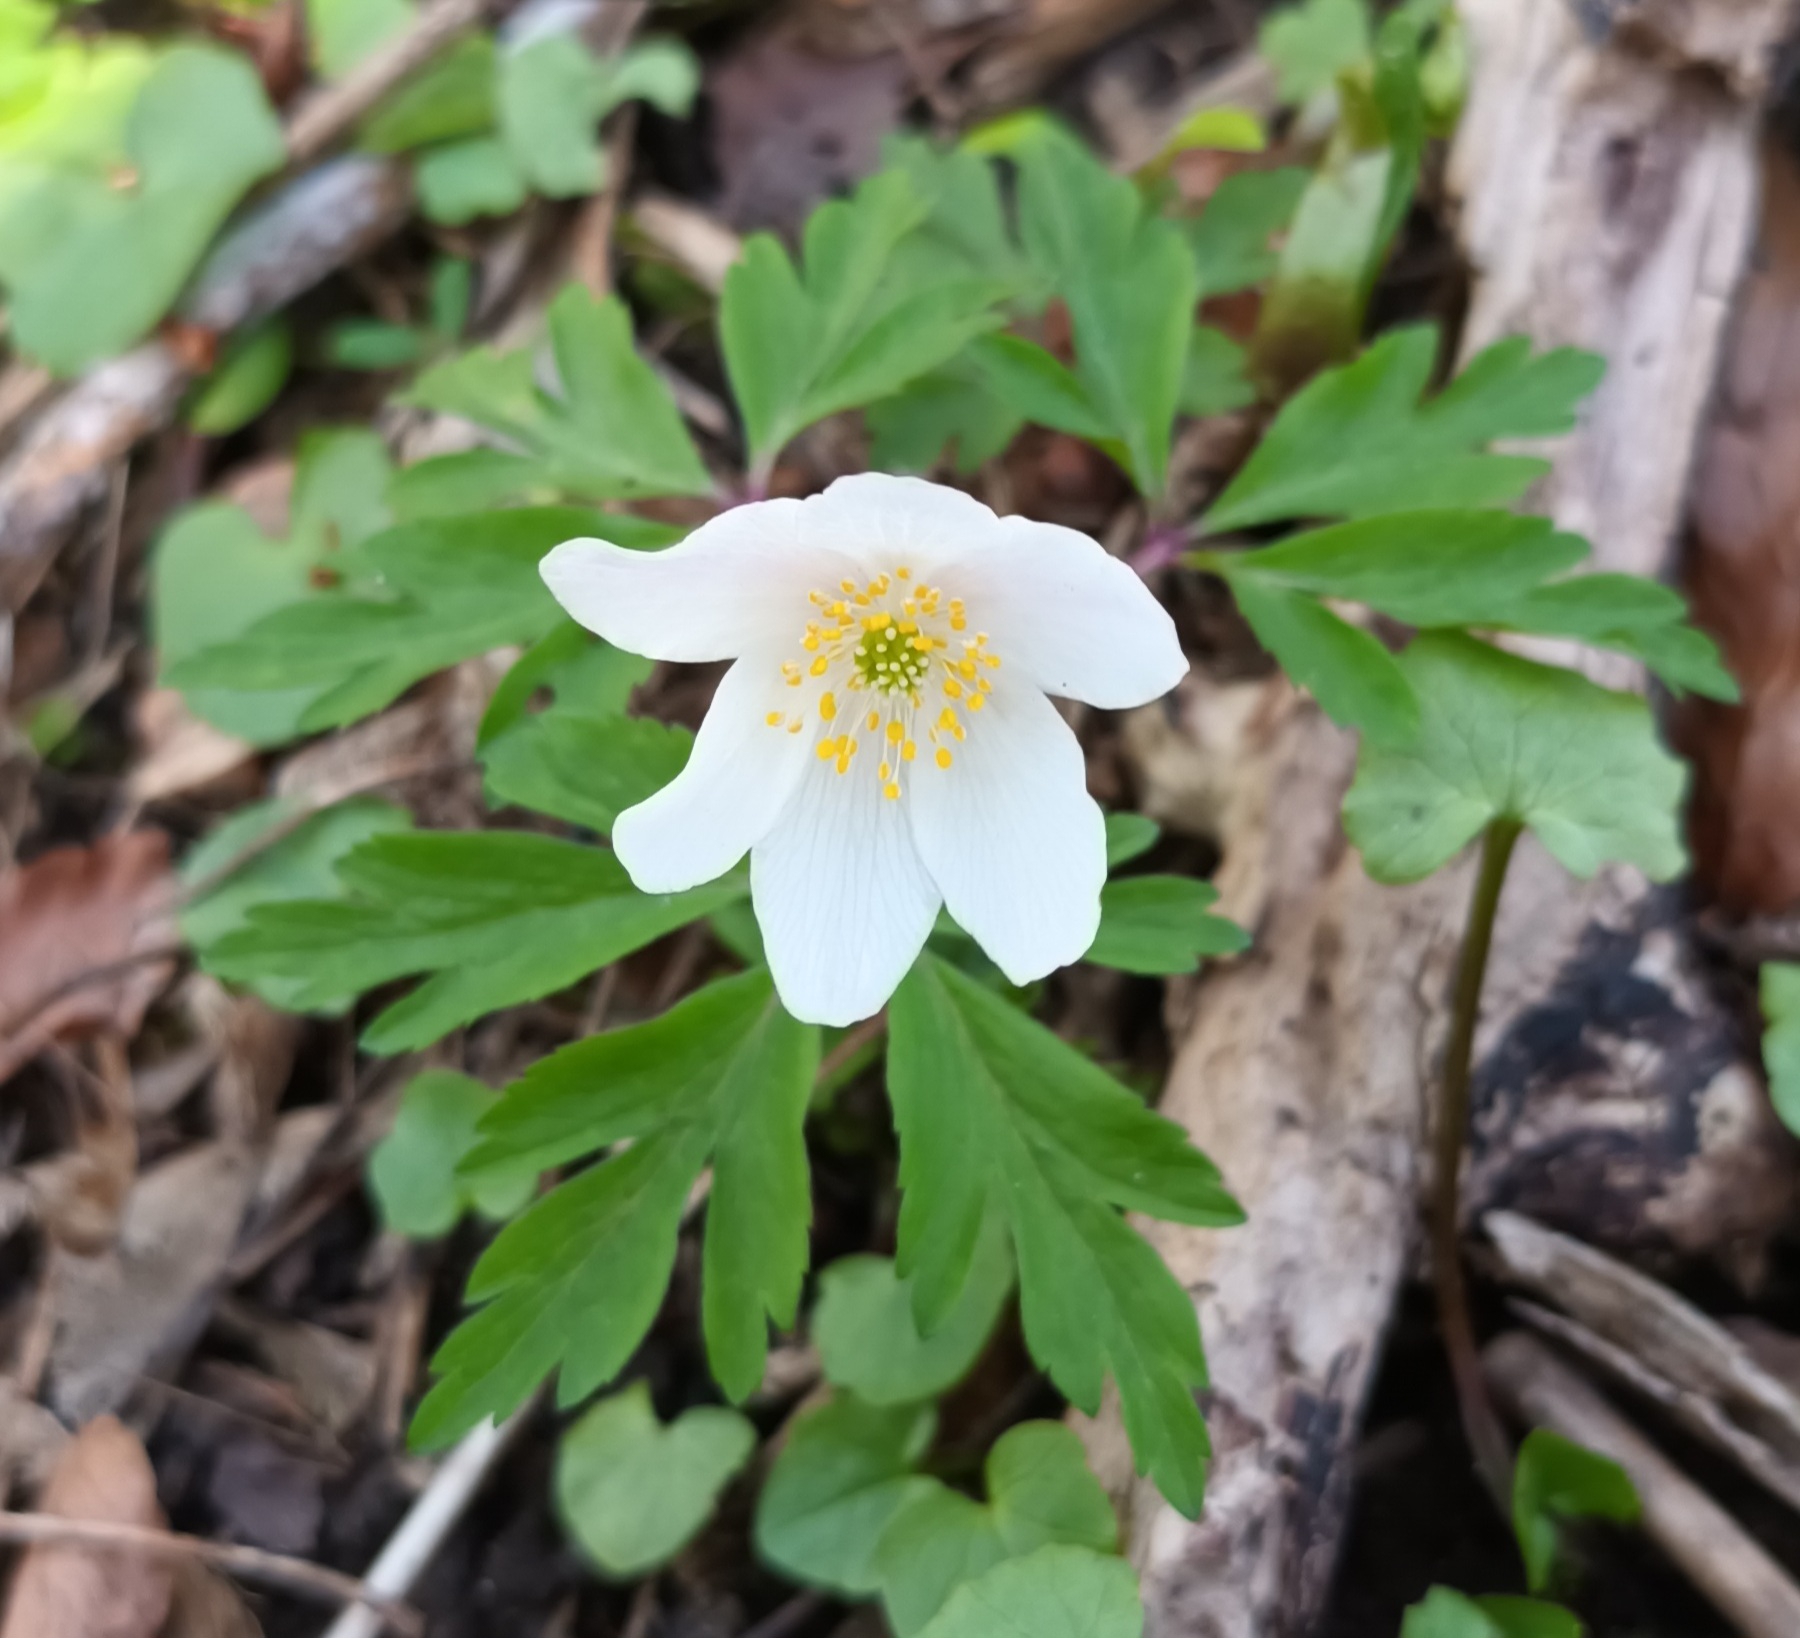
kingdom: Plantae
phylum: Tracheophyta
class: Magnoliopsida
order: Ranunculales
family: Ranunculaceae
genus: Anemone
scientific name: Anemone nemorosa
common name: Hvid anemone
